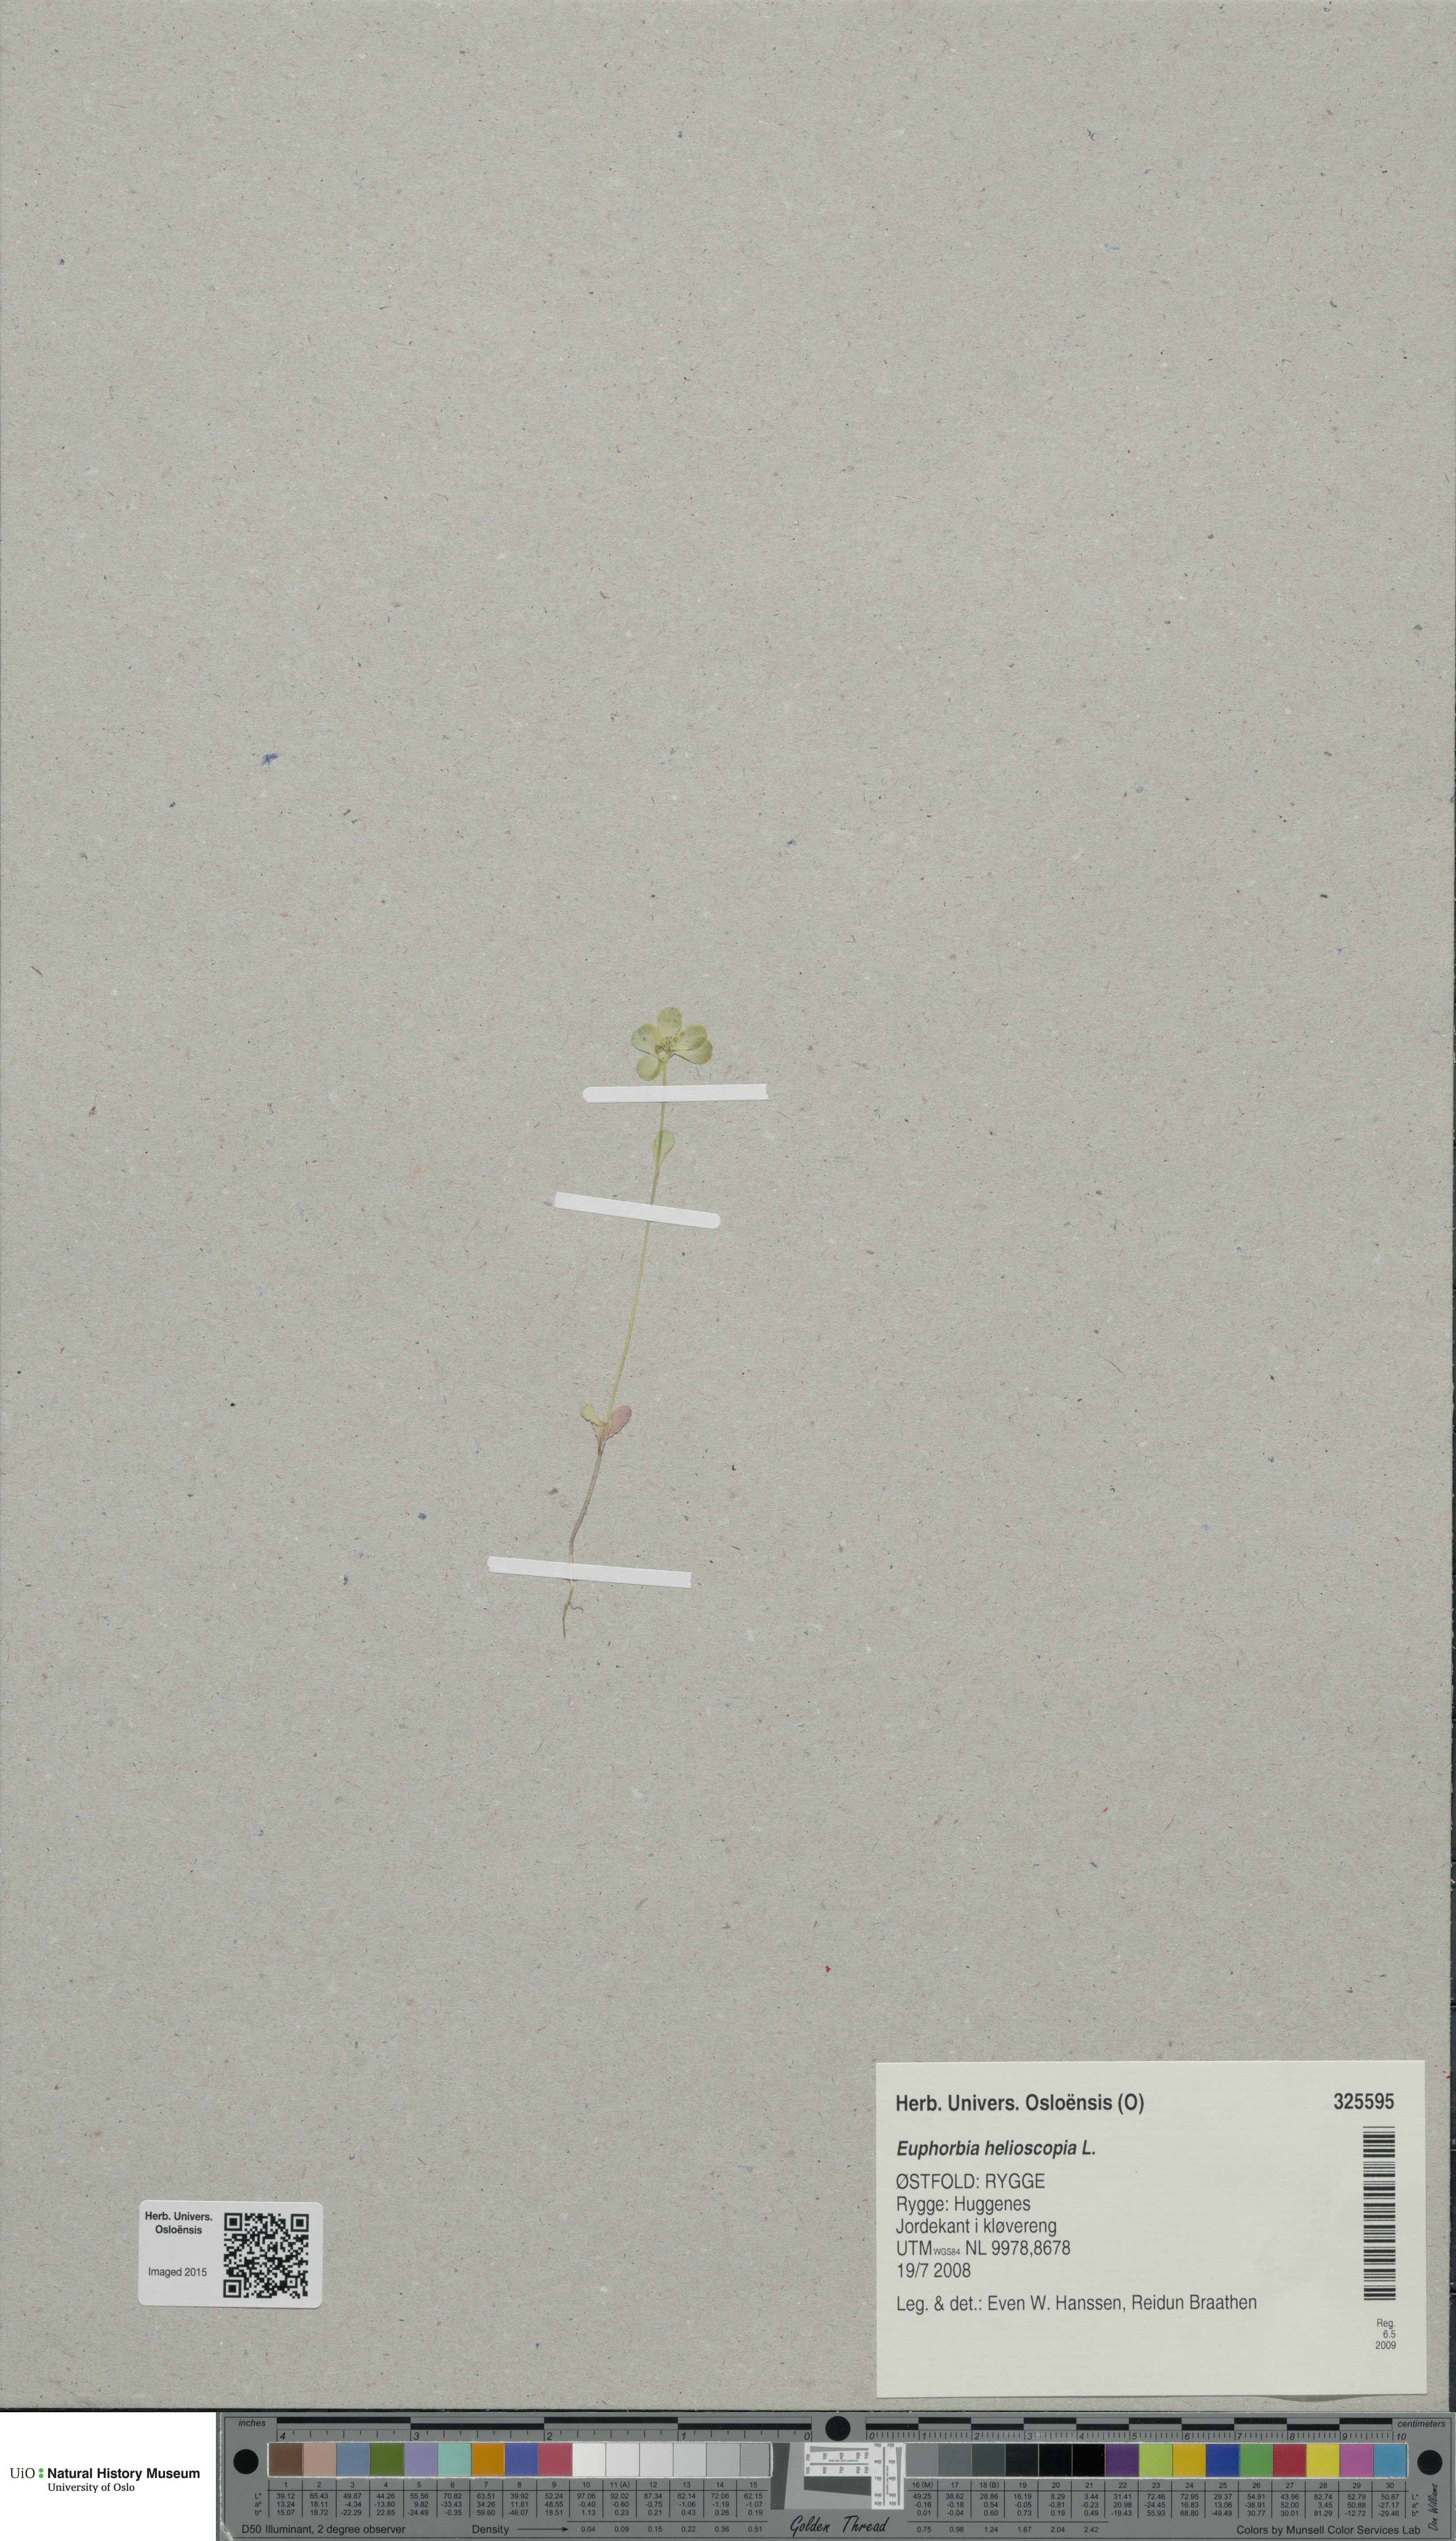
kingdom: Plantae
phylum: Tracheophyta
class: Magnoliopsida
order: Malpighiales
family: Euphorbiaceae
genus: Euphorbia
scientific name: Euphorbia helioscopia
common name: Sun spurge
